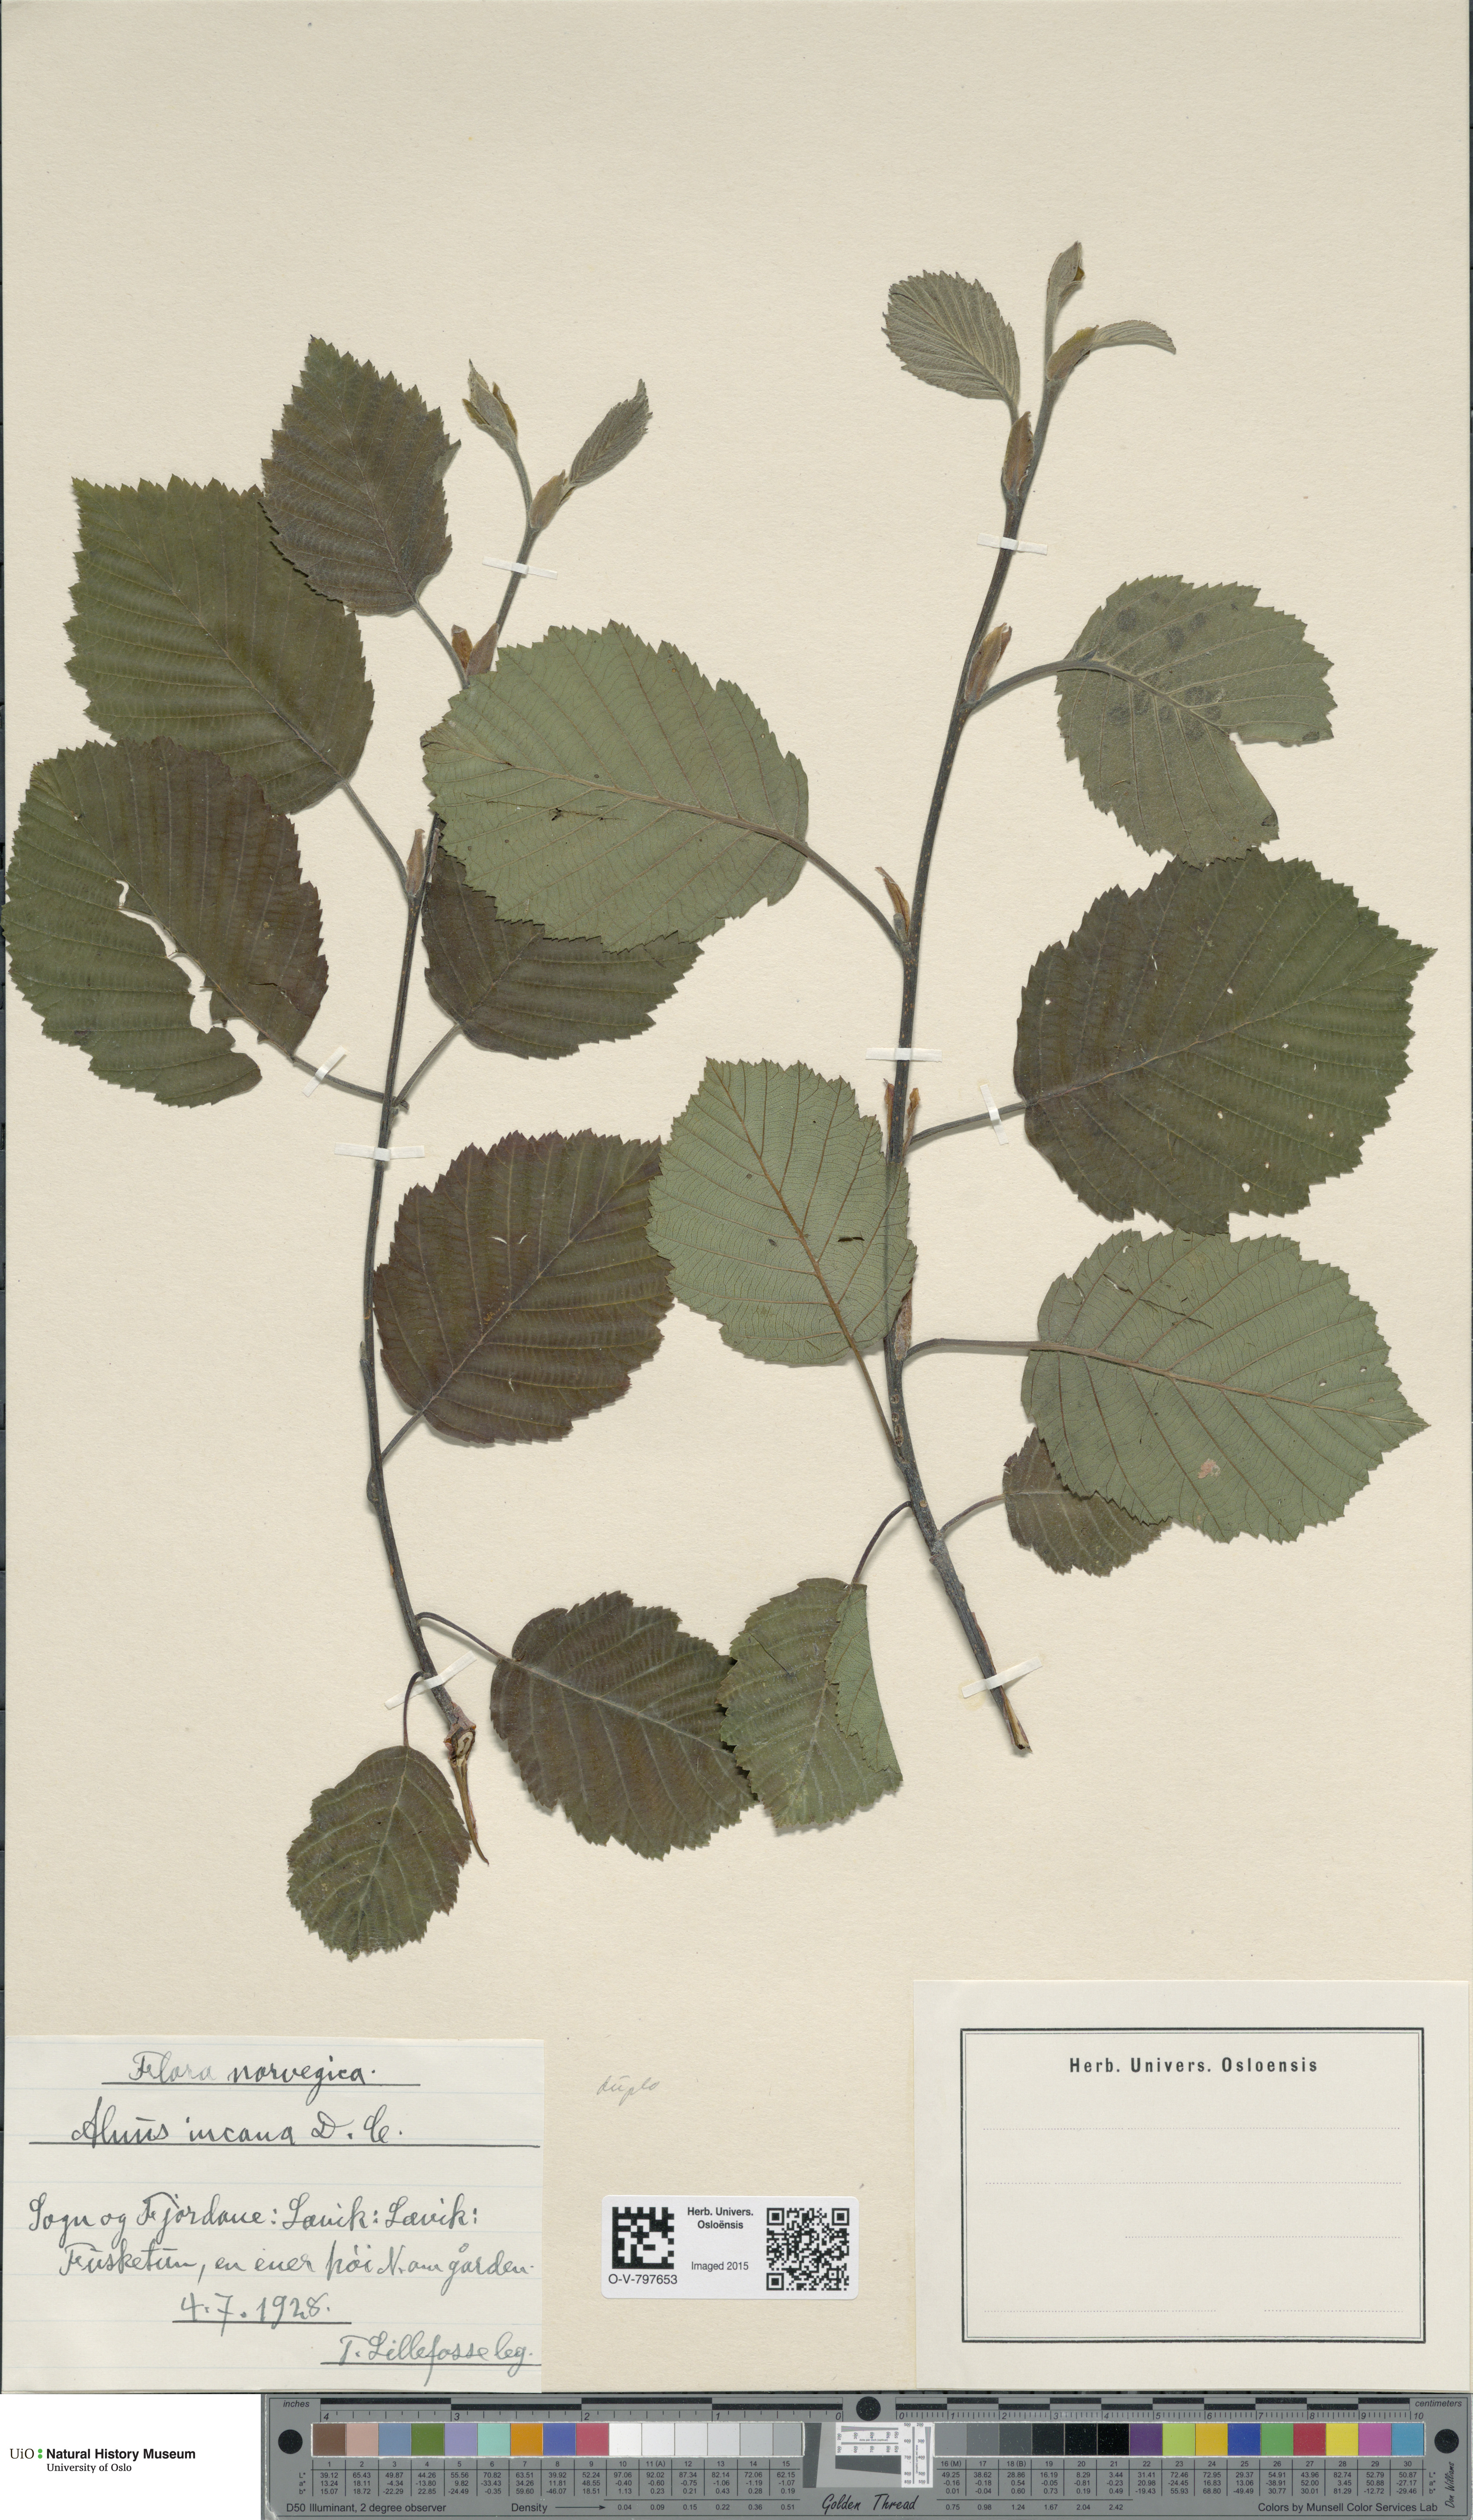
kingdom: Plantae
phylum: Tracheophyta
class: Magnoliopsida
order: Fagales
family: Betulaceae
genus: Alnus
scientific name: Alnus incana
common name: Grey alder
